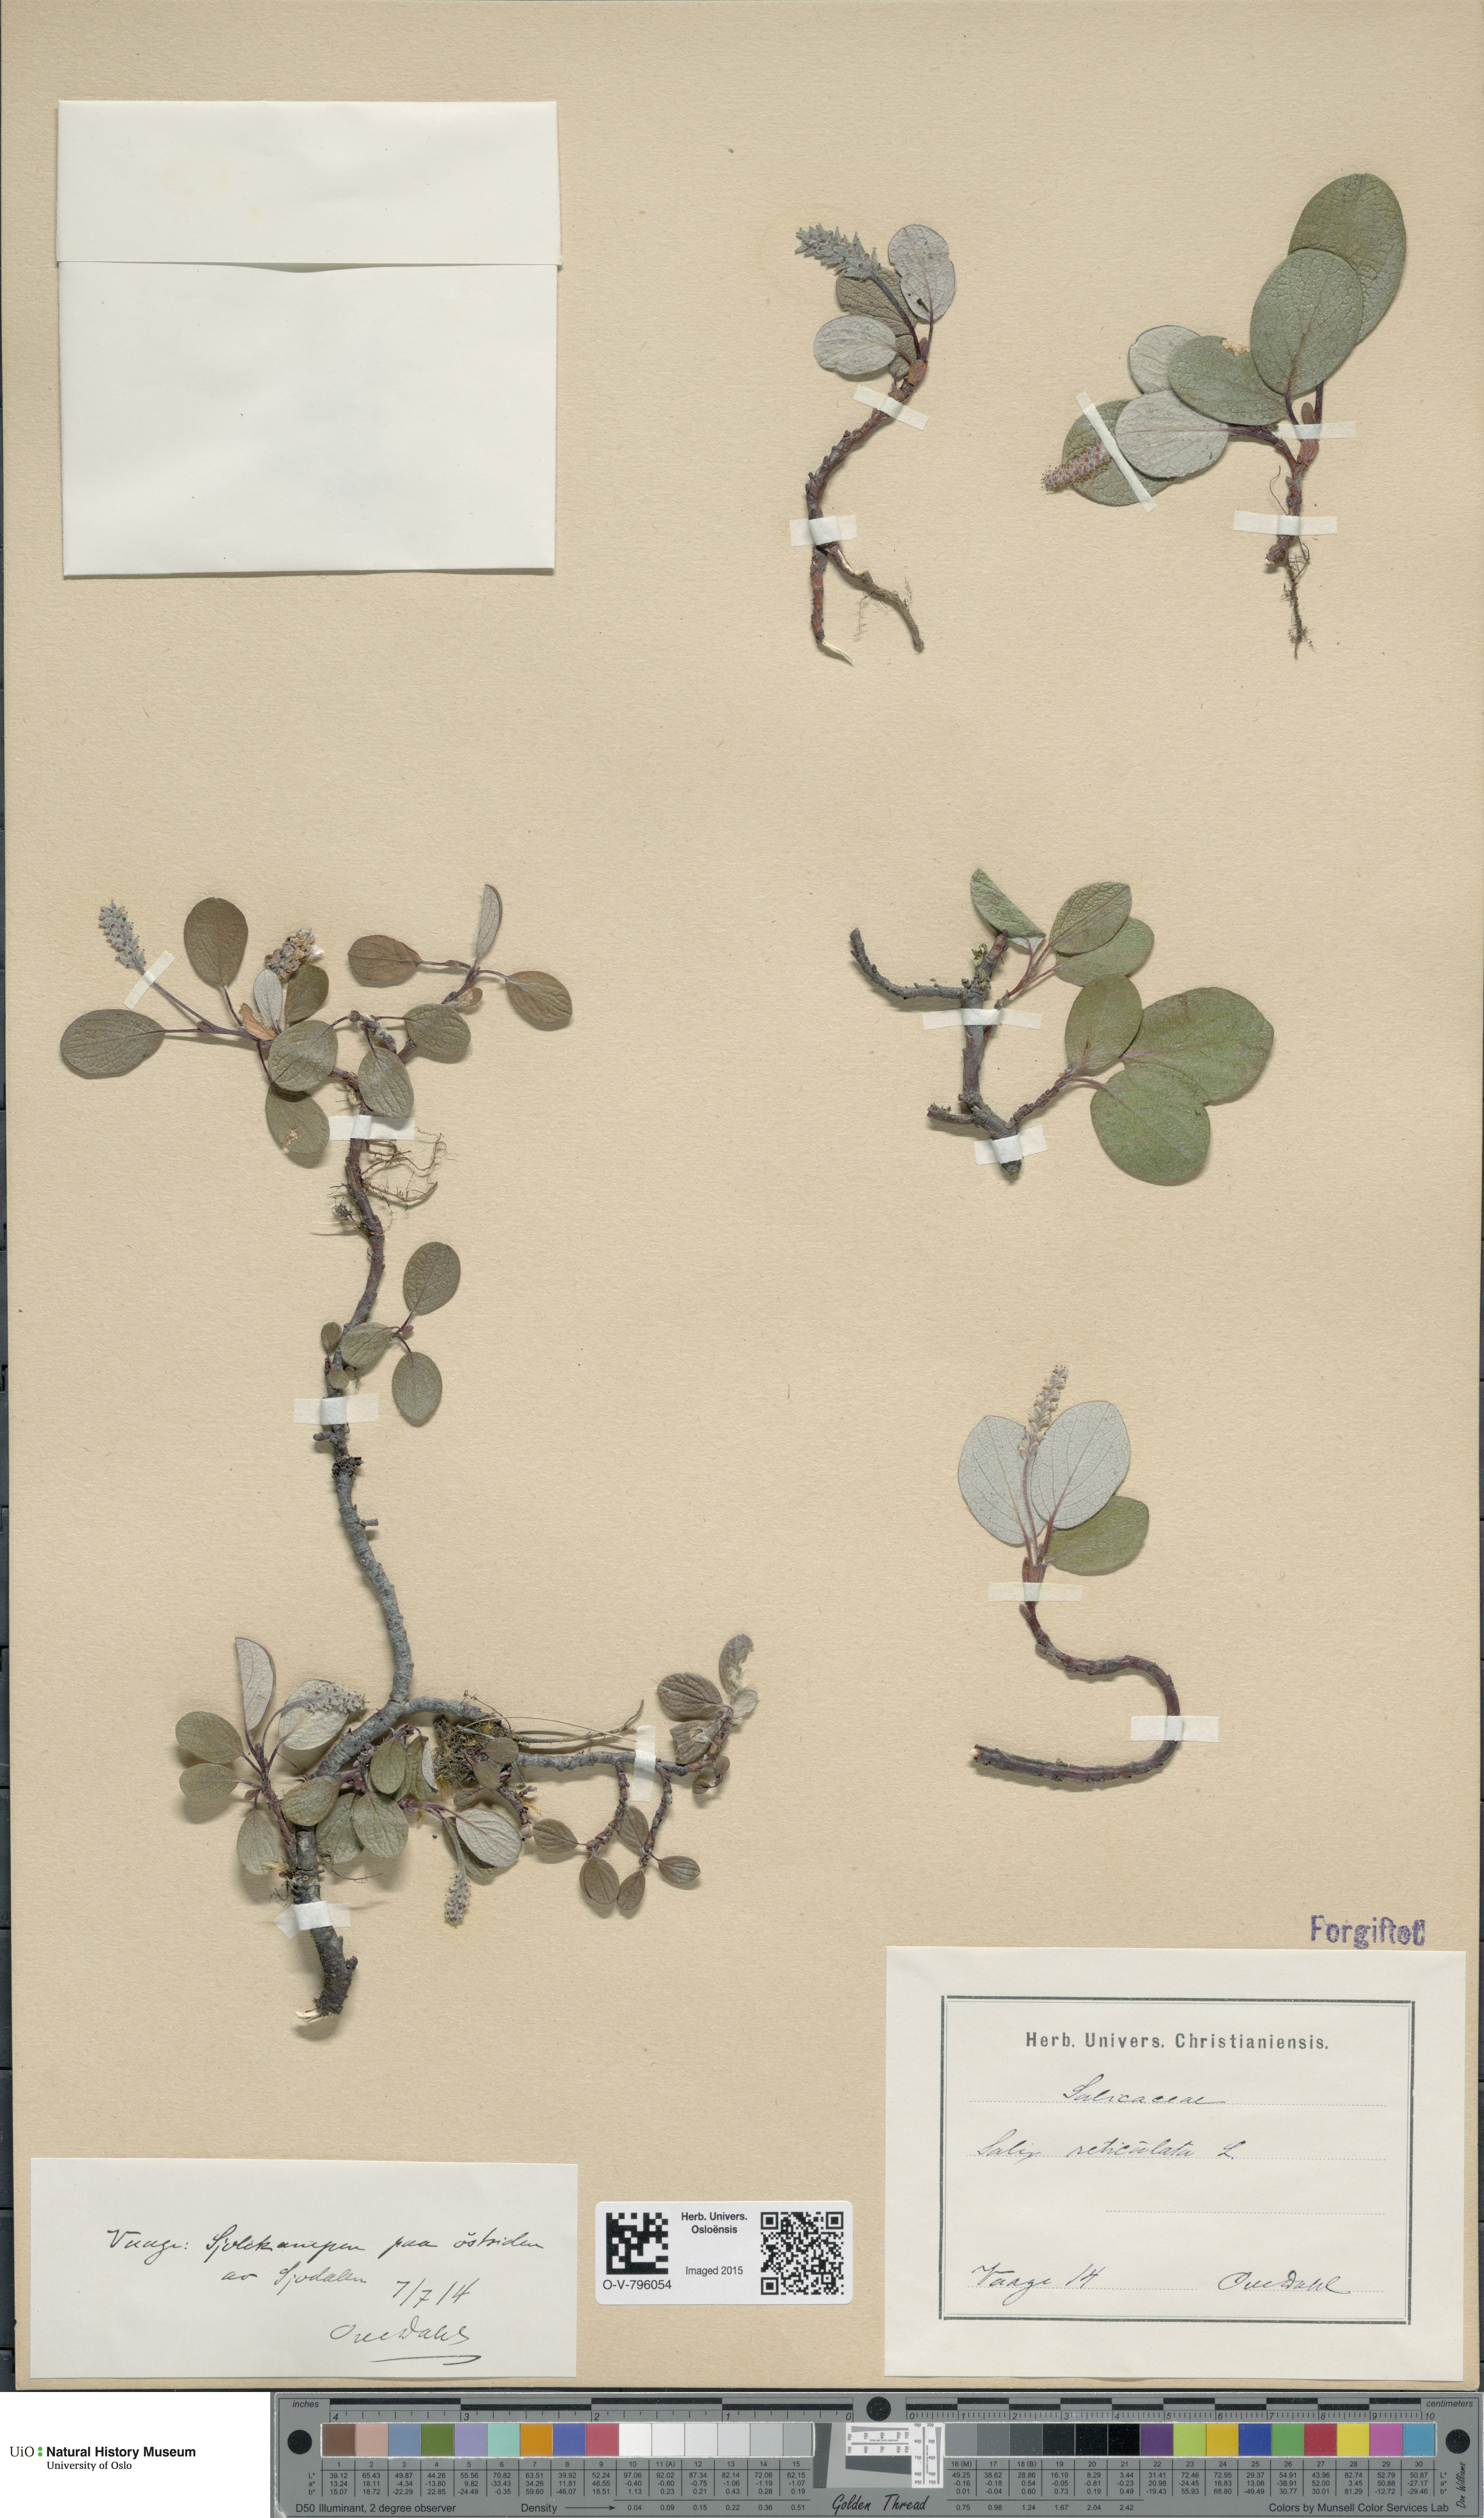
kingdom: Plantae
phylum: Tracheophyta
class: Magnoliopsida
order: Malpighiales
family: Salicaceae
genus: Salix
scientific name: Salix reticulata
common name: Net-leaved willow
